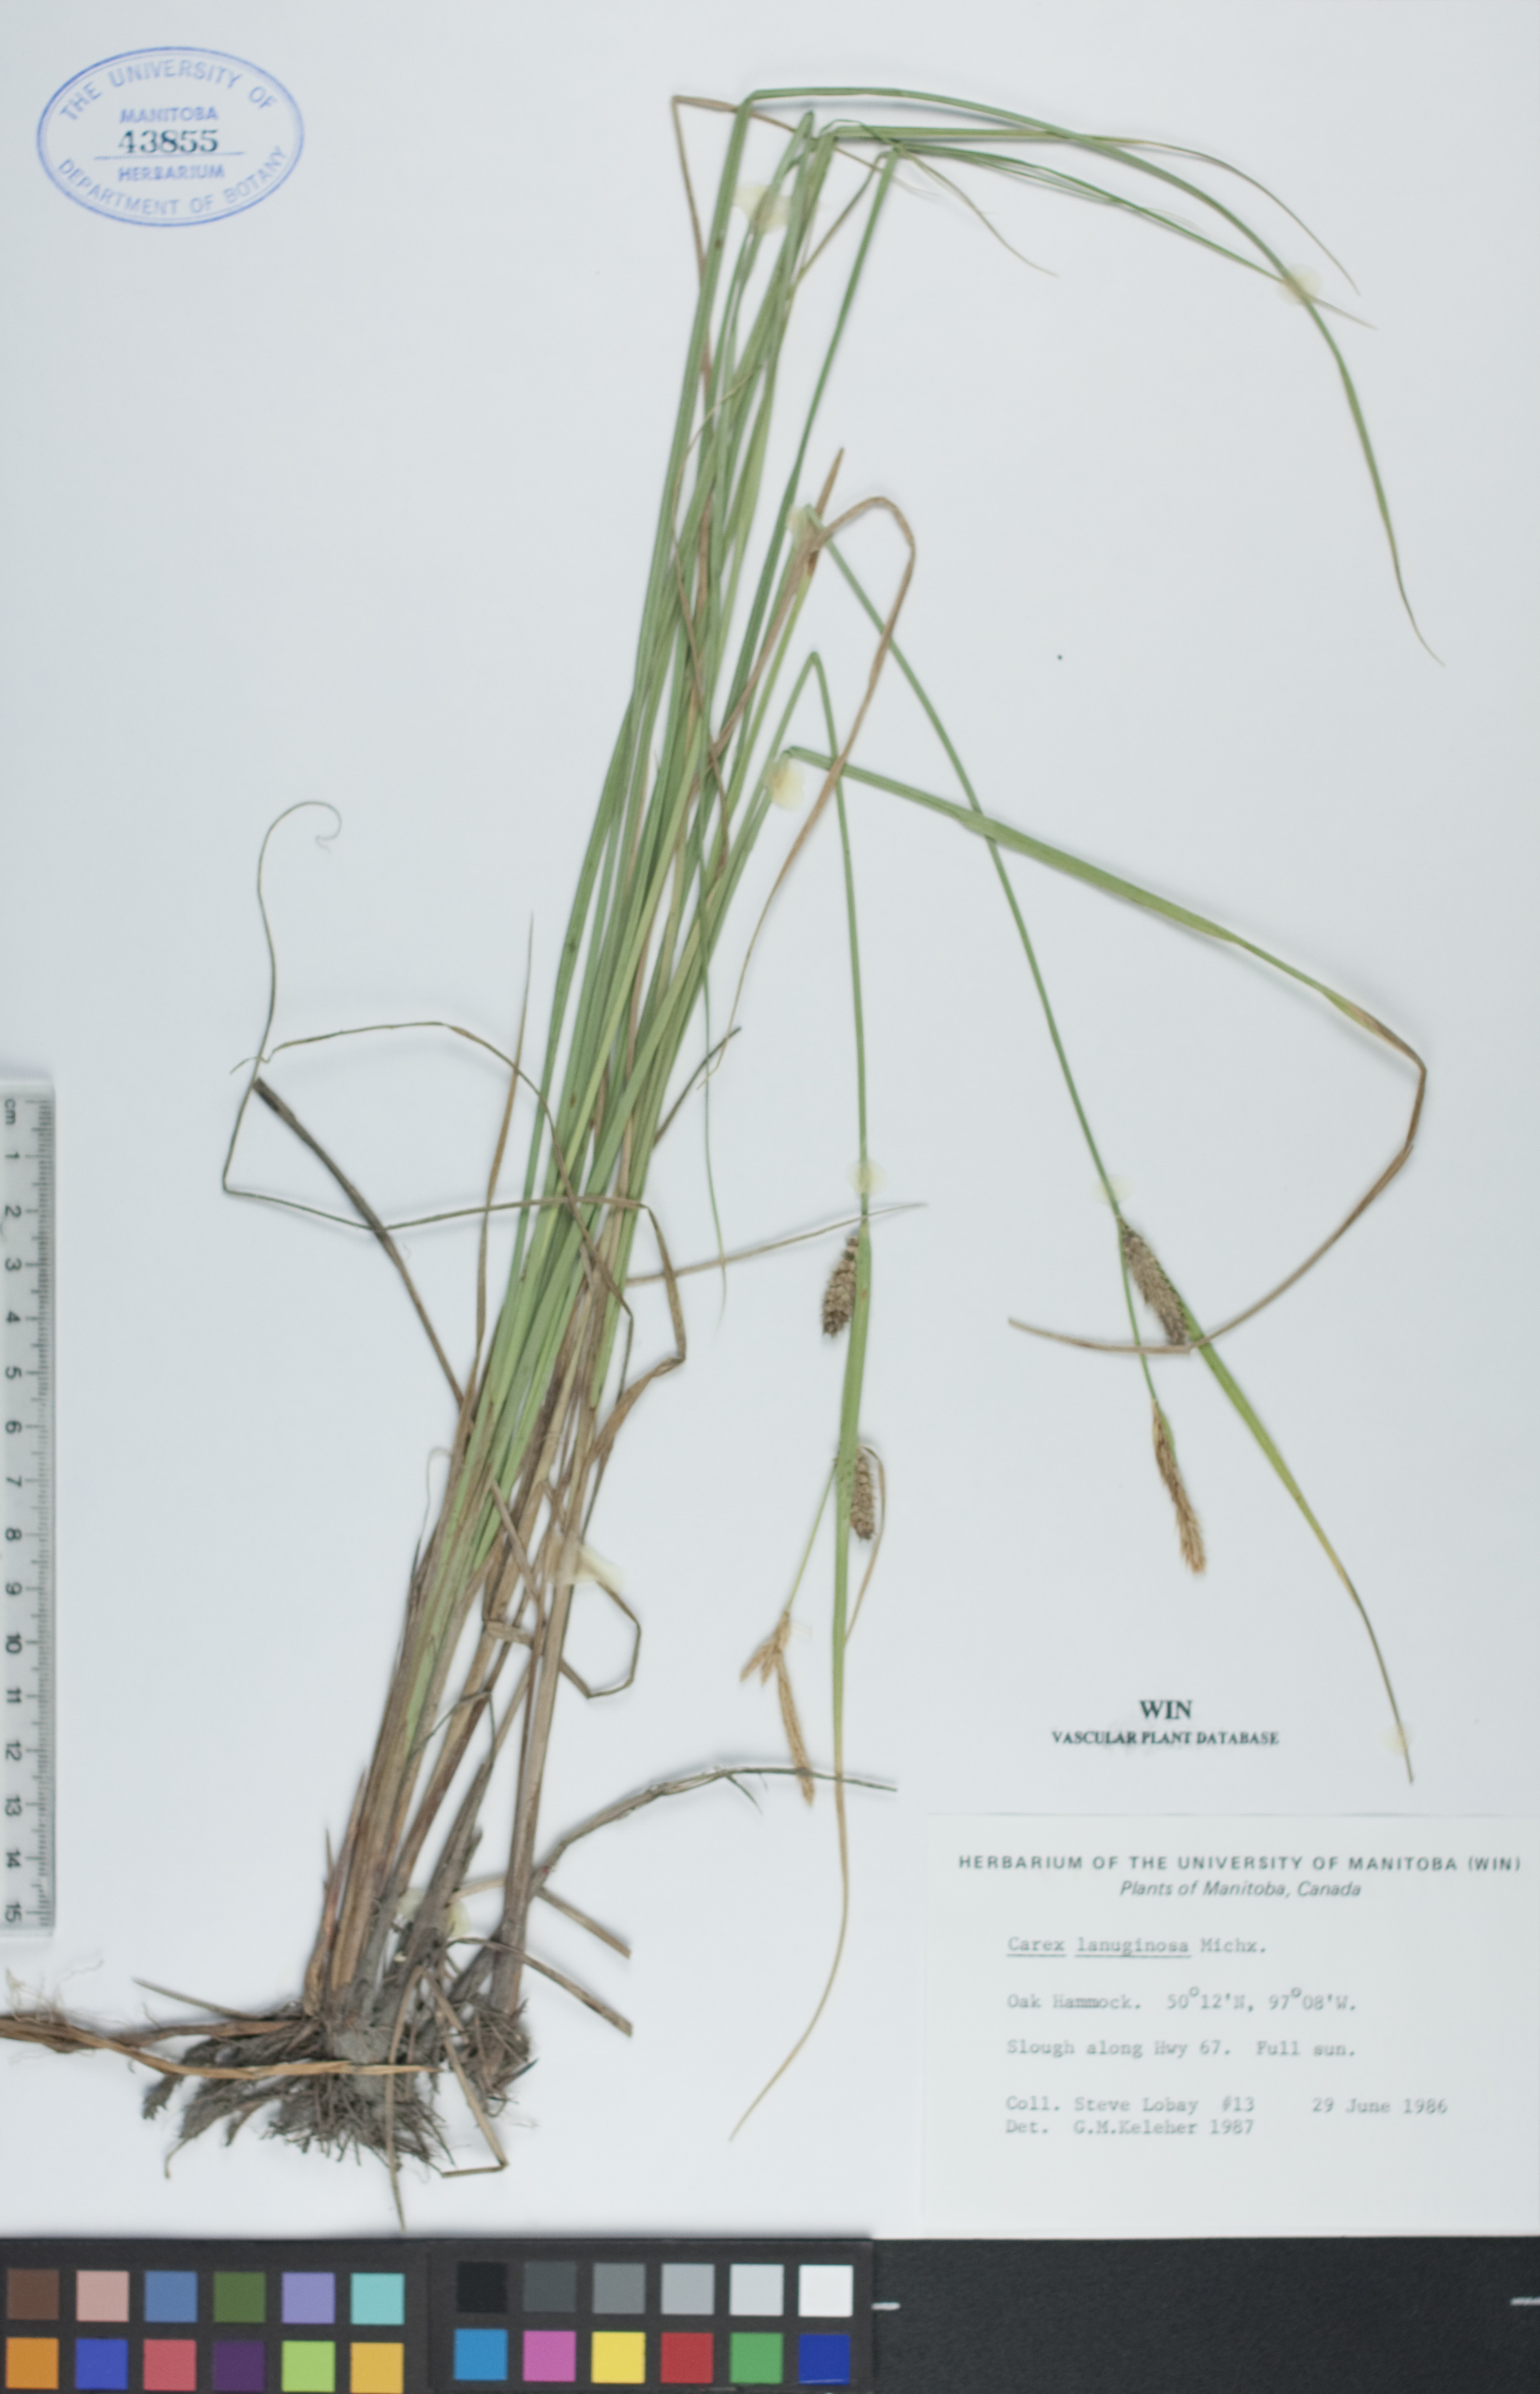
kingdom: Plantae
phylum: Tracheophyta
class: Liliopsida
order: Poales
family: Cyperaceae
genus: Carex
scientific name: Carex lasiocarpa
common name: Slender sedge
